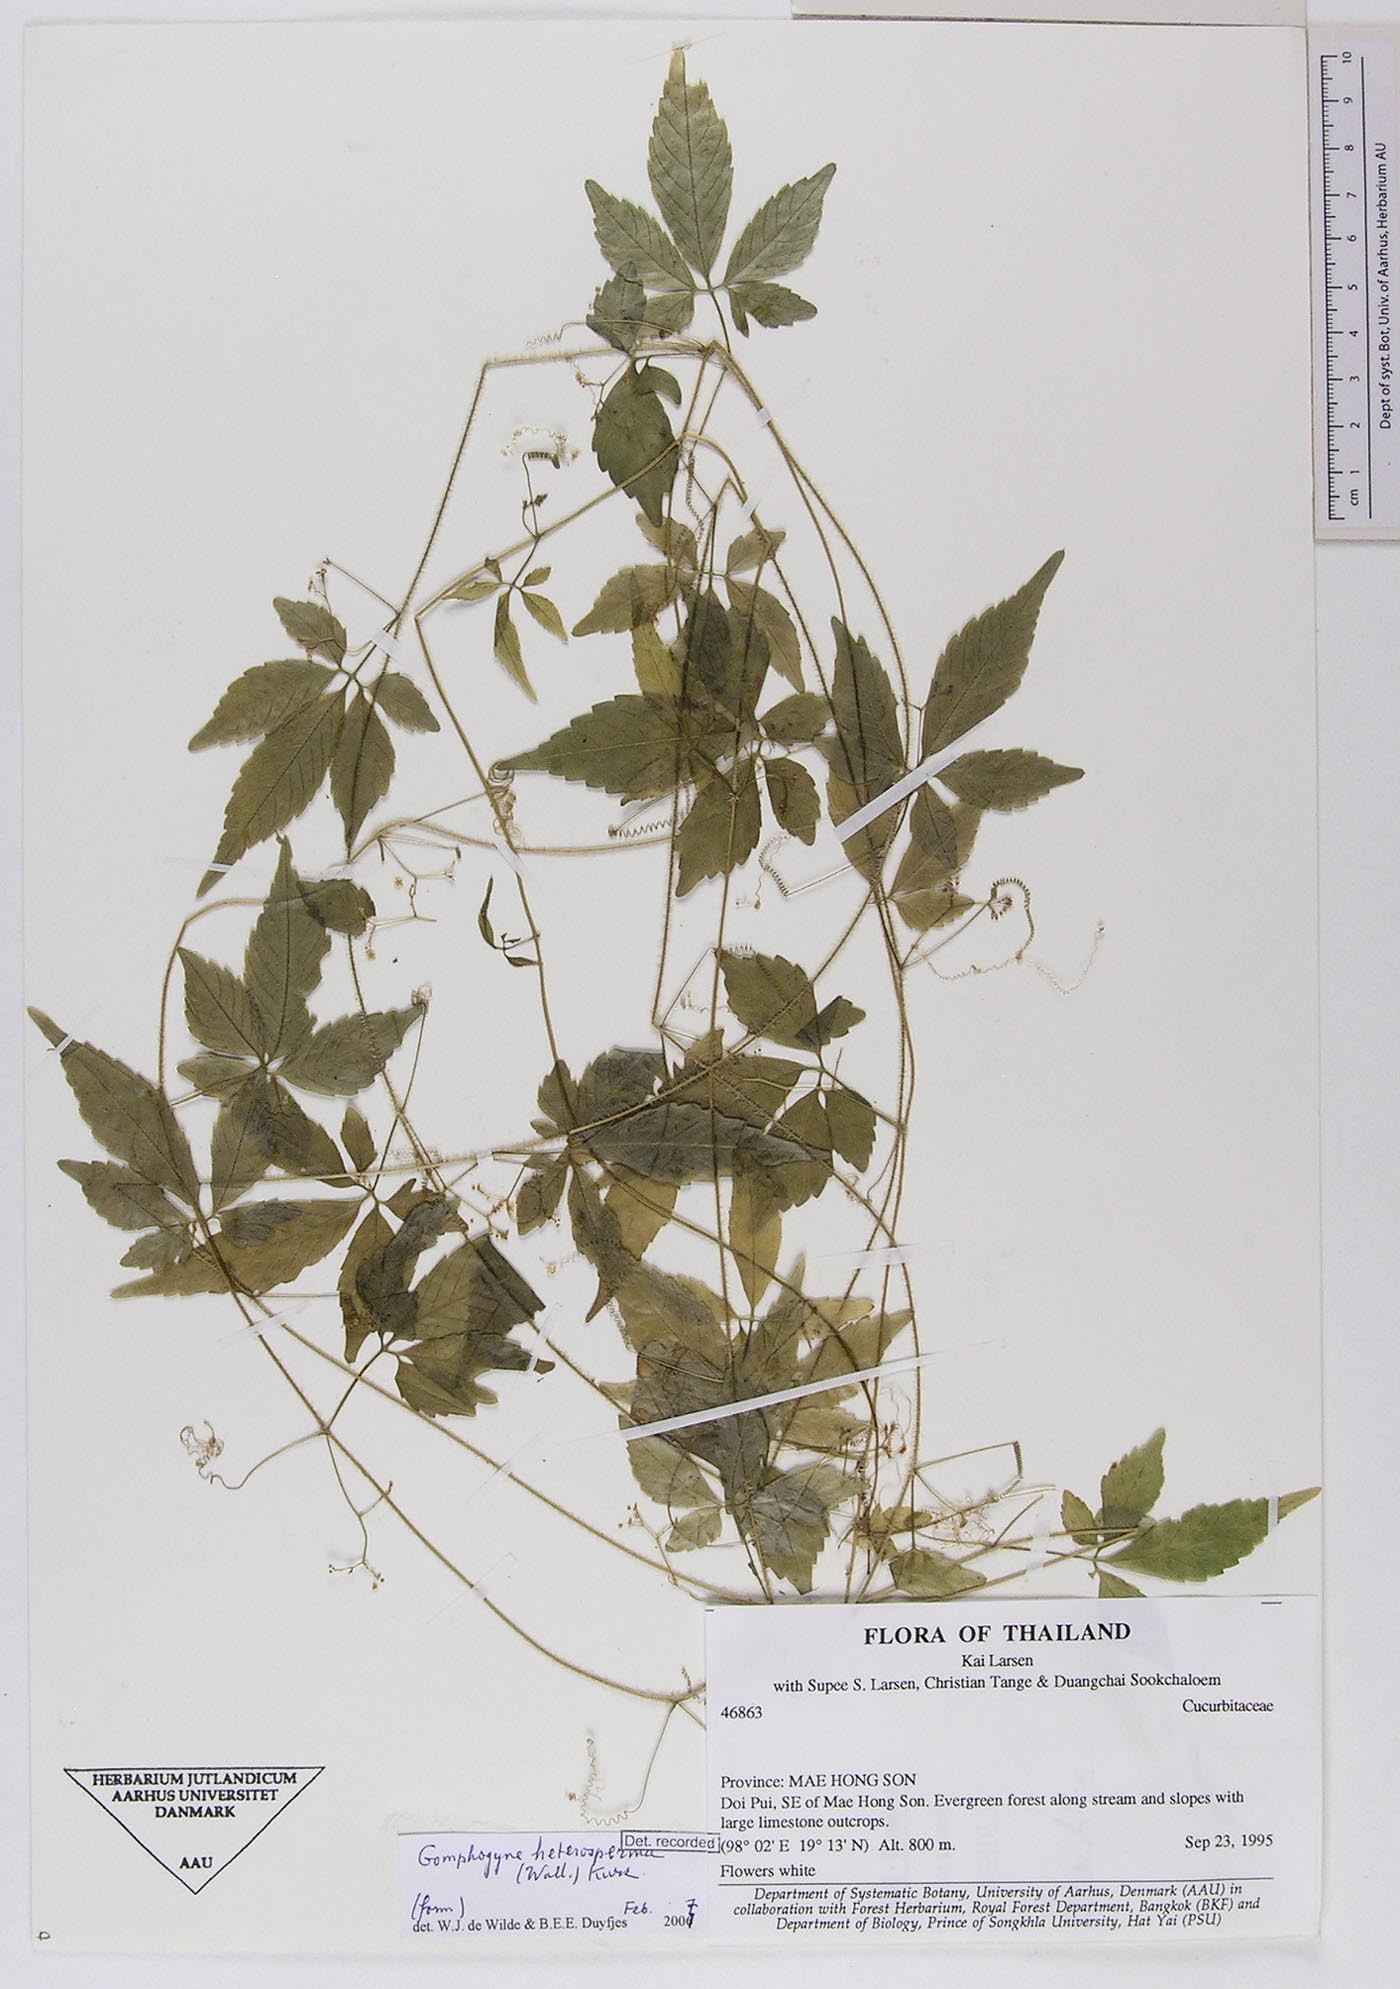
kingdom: Plantae
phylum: Tracheophyta
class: Magnoliopsida
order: Cucurbitales
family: Cucurbitaceae
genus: Gomphogyne
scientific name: Gomphogyne heterosperma
